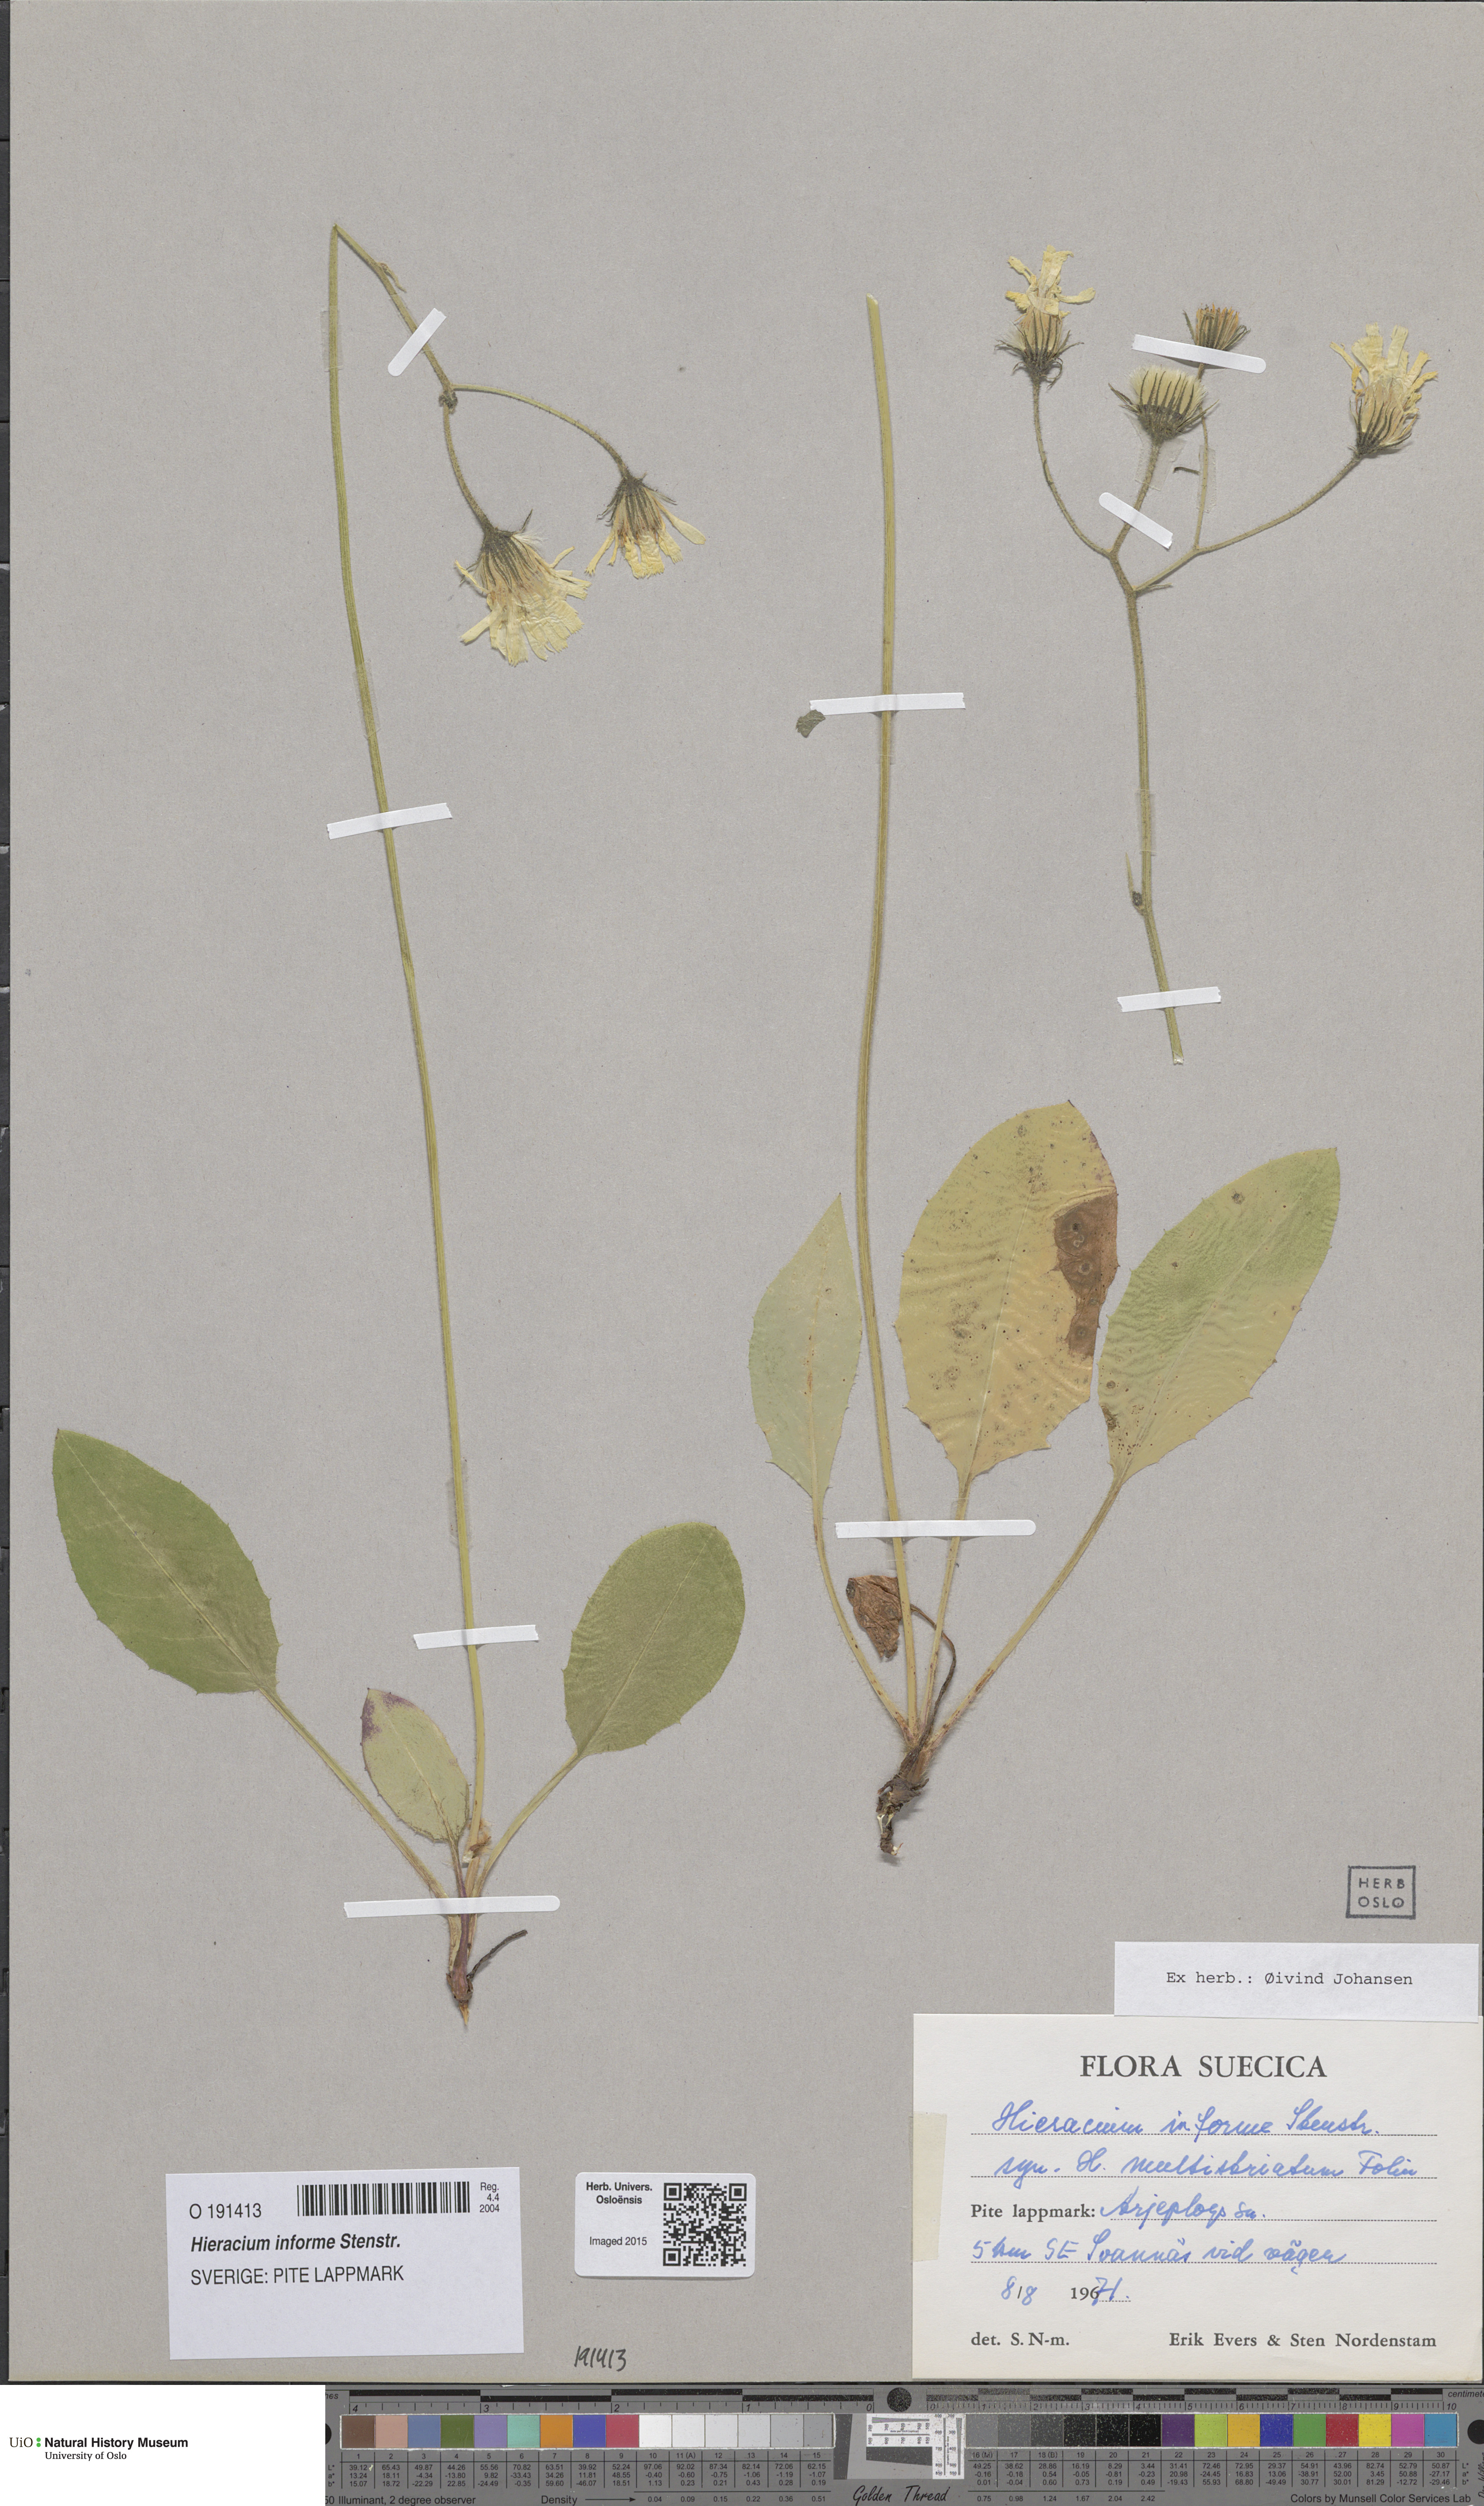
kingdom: Plantae
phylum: Tracheophyta
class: Magnoliopsida
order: Asterales
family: Asteraceae
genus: Hieracium
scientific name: Hieracium informe
